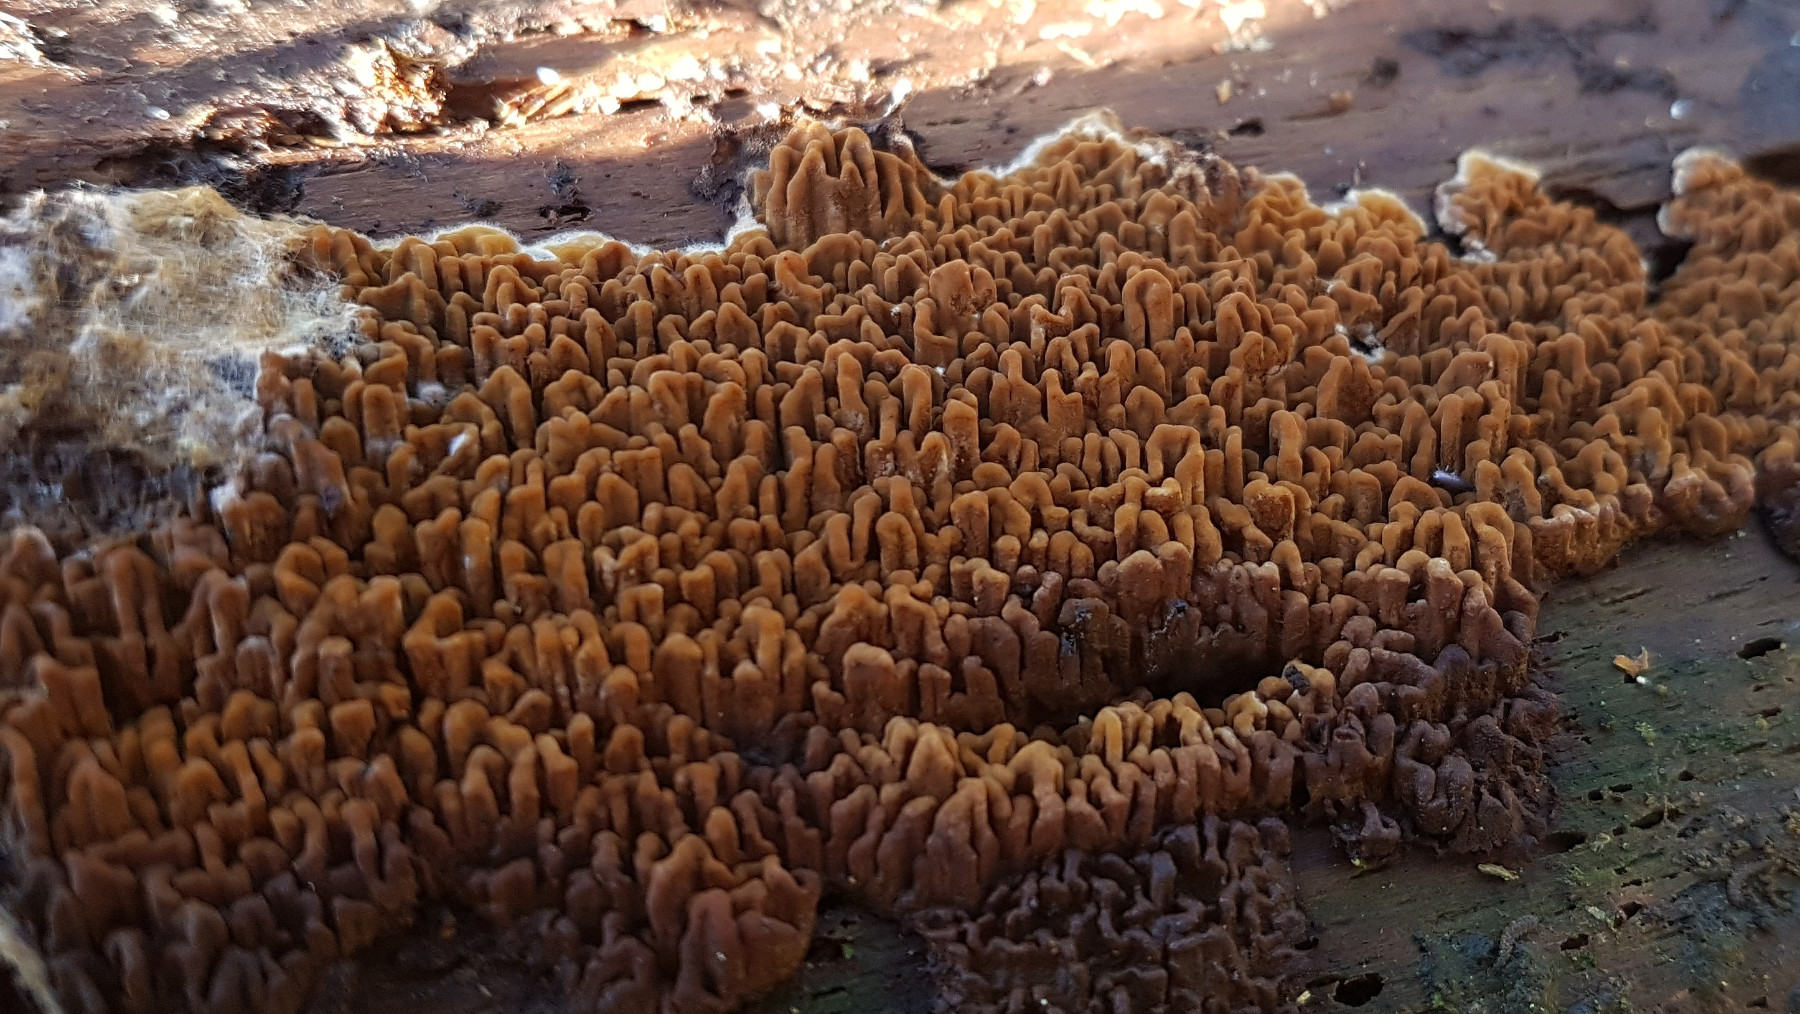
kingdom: Fungi
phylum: Basidiomycota
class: Agaricomycetes
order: Boletales
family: Serpulaceae
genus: Serpula
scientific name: Serpula himantioides
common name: tyndkødet hussvamp
